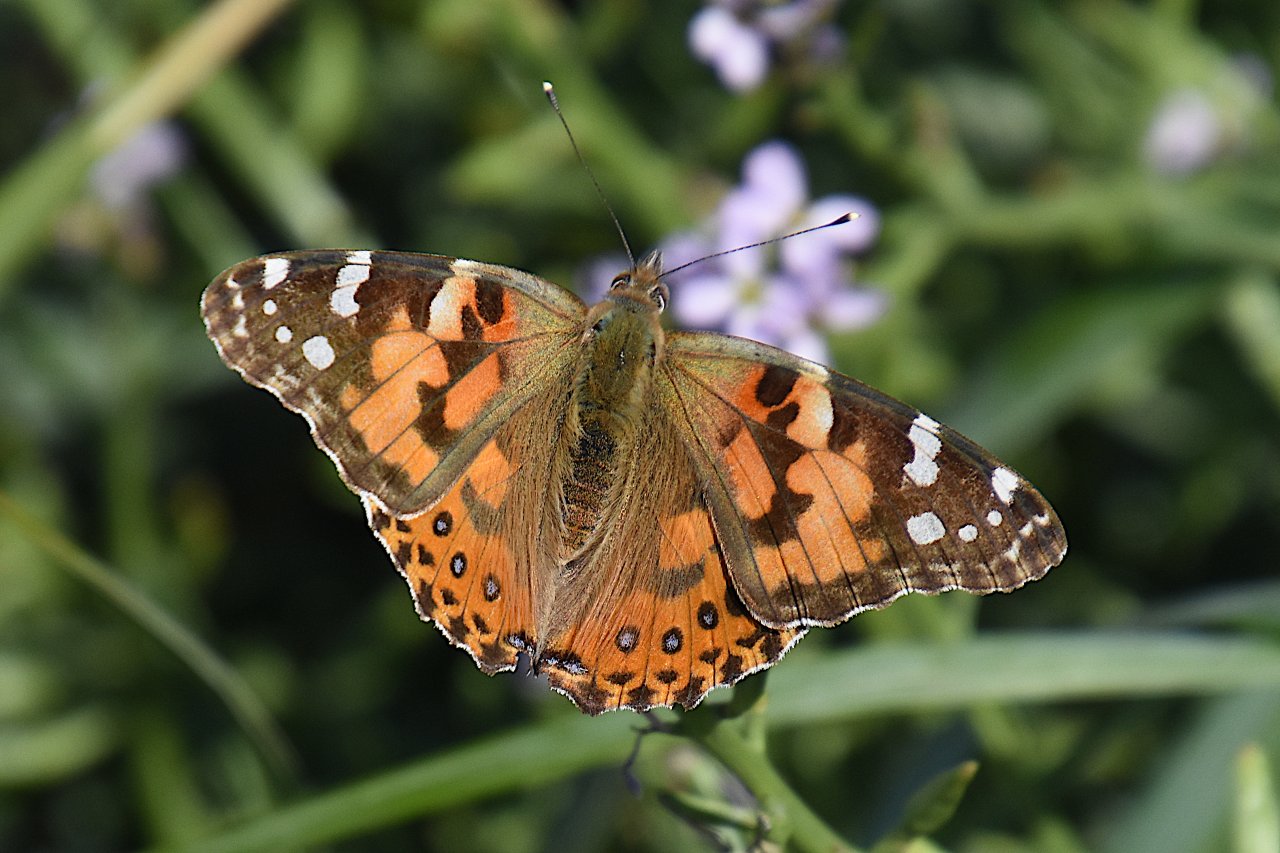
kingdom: Animalia
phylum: Arthropoda
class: Insecta
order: Lepidoptera
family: Nymphalidae
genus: Vanessa
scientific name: Vanessa cardui
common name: Painted Lady
